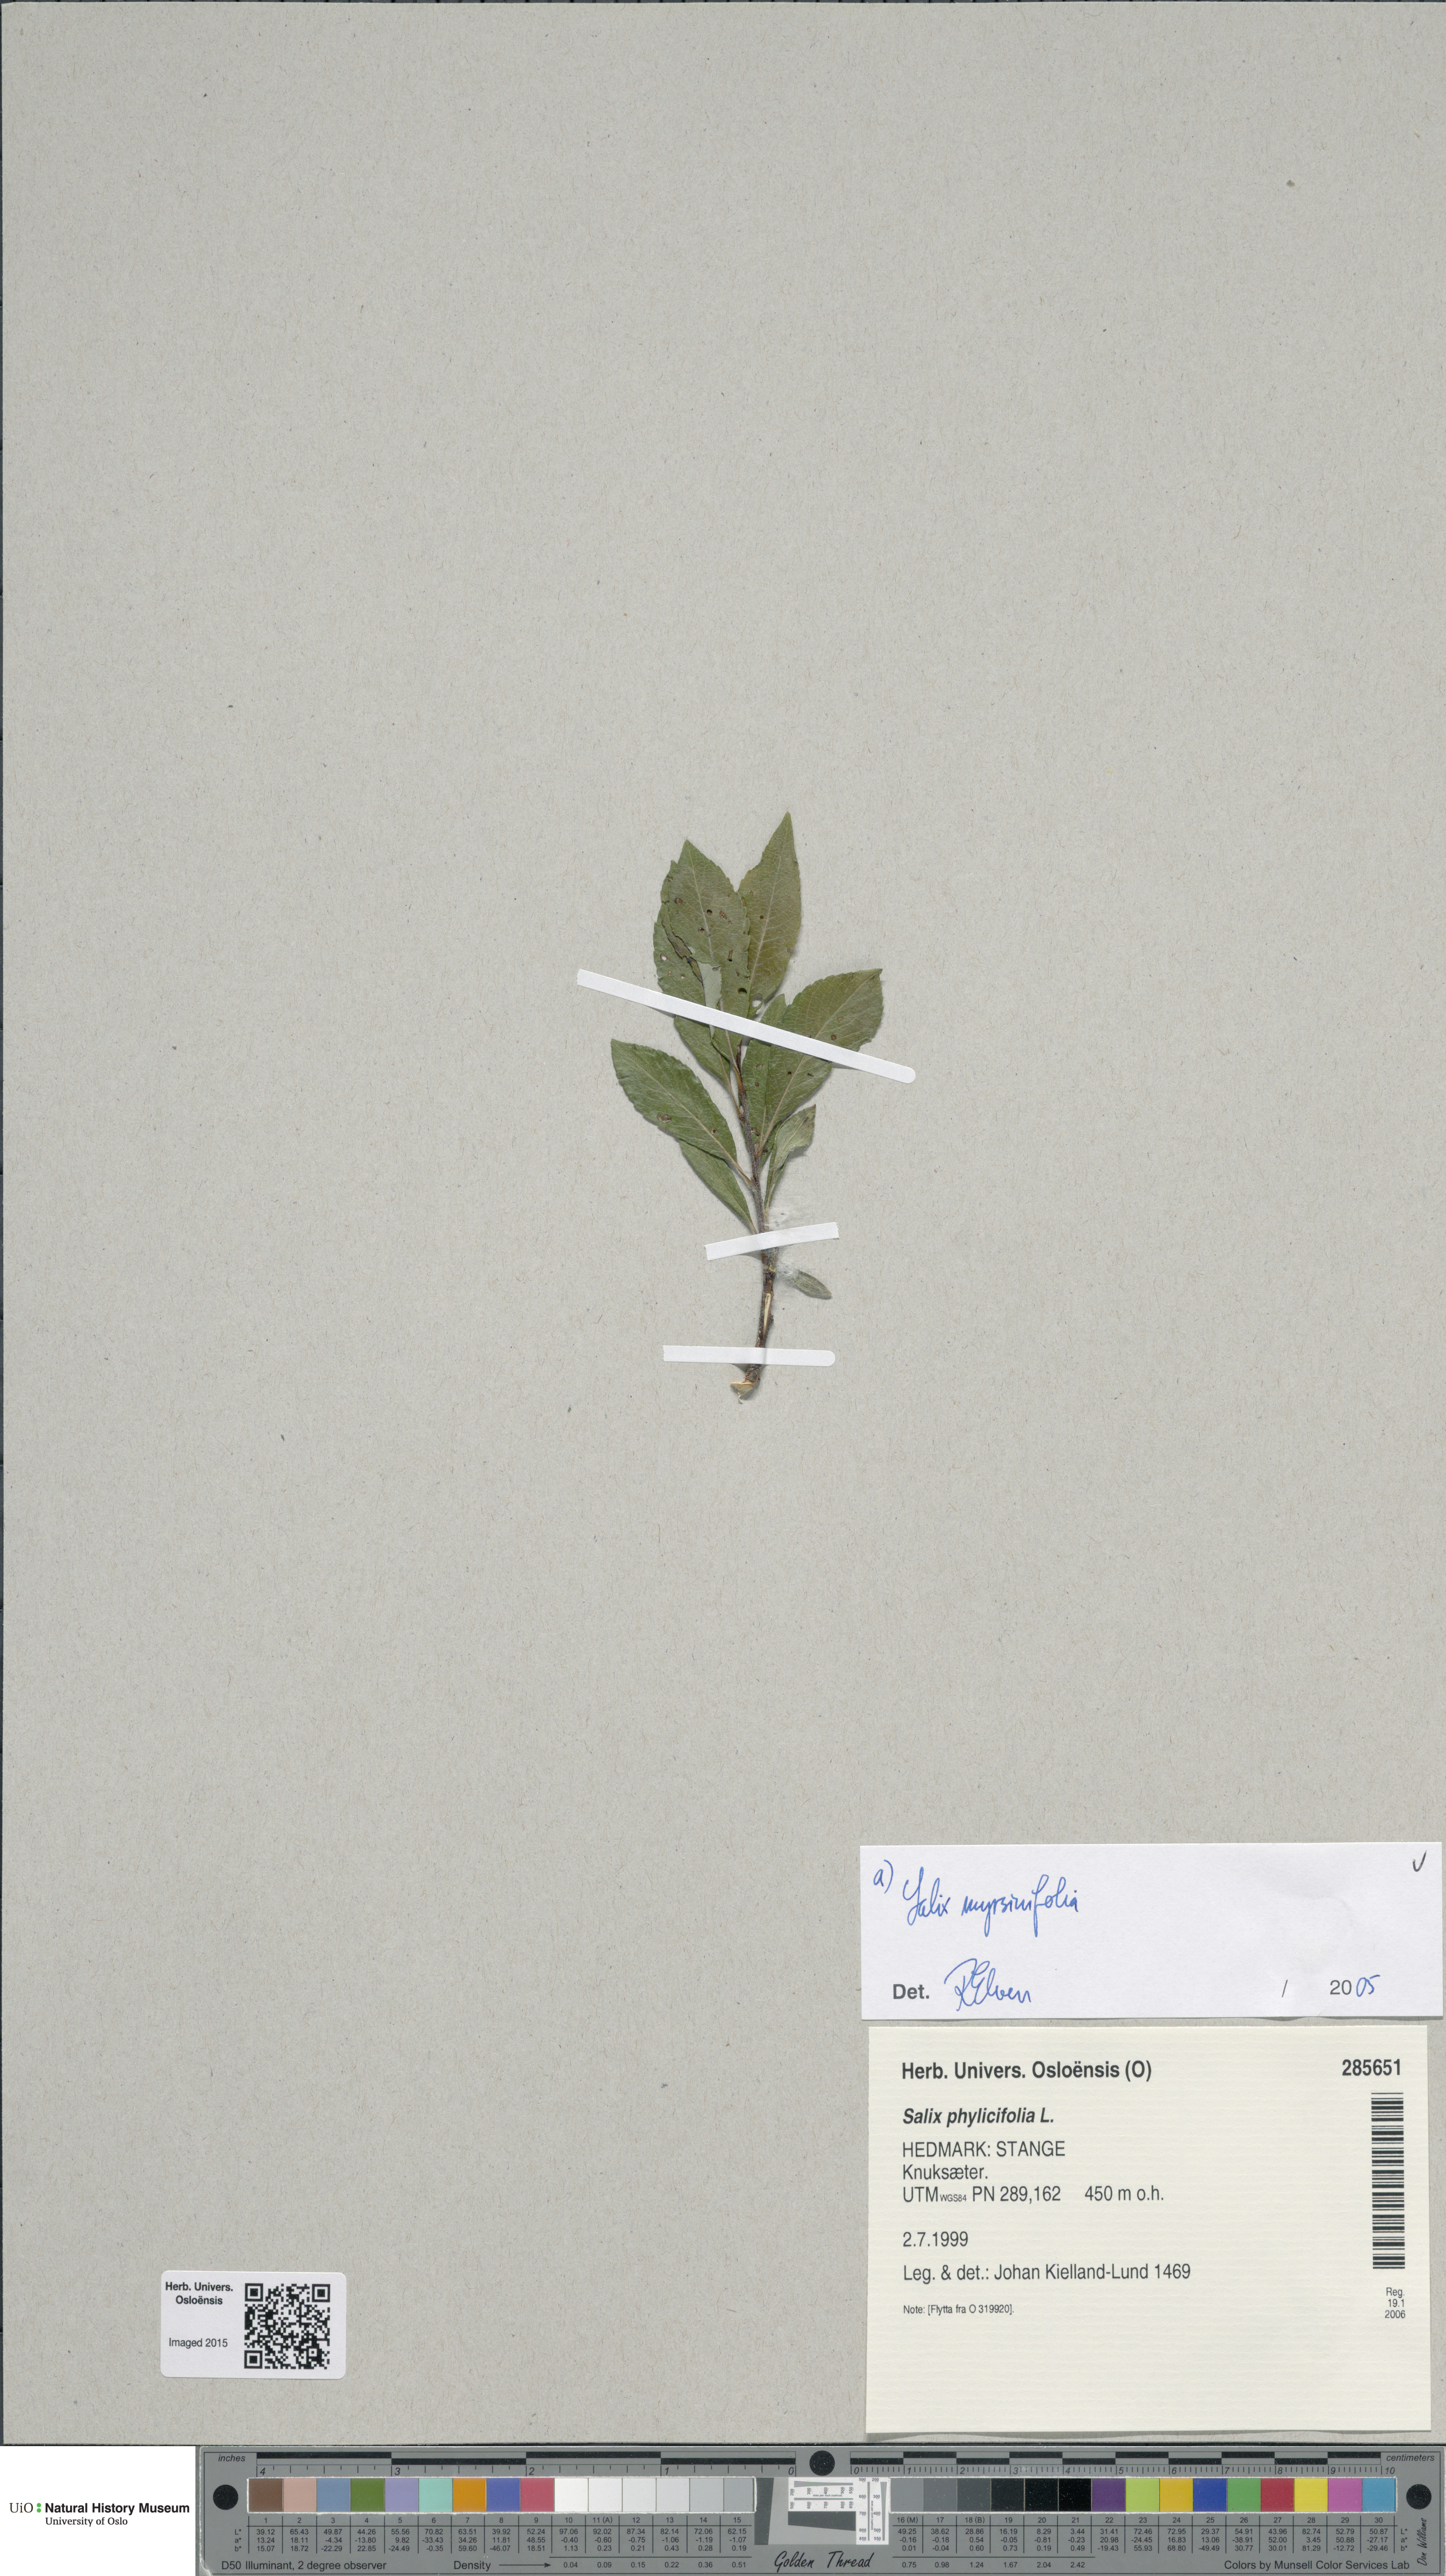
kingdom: Plantae
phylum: Tracheophyta
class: Magnoliopsida
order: Malpighiales
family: Salicaceae
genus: Salix
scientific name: Salix myrsinifolia
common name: Dark-leaved willow
